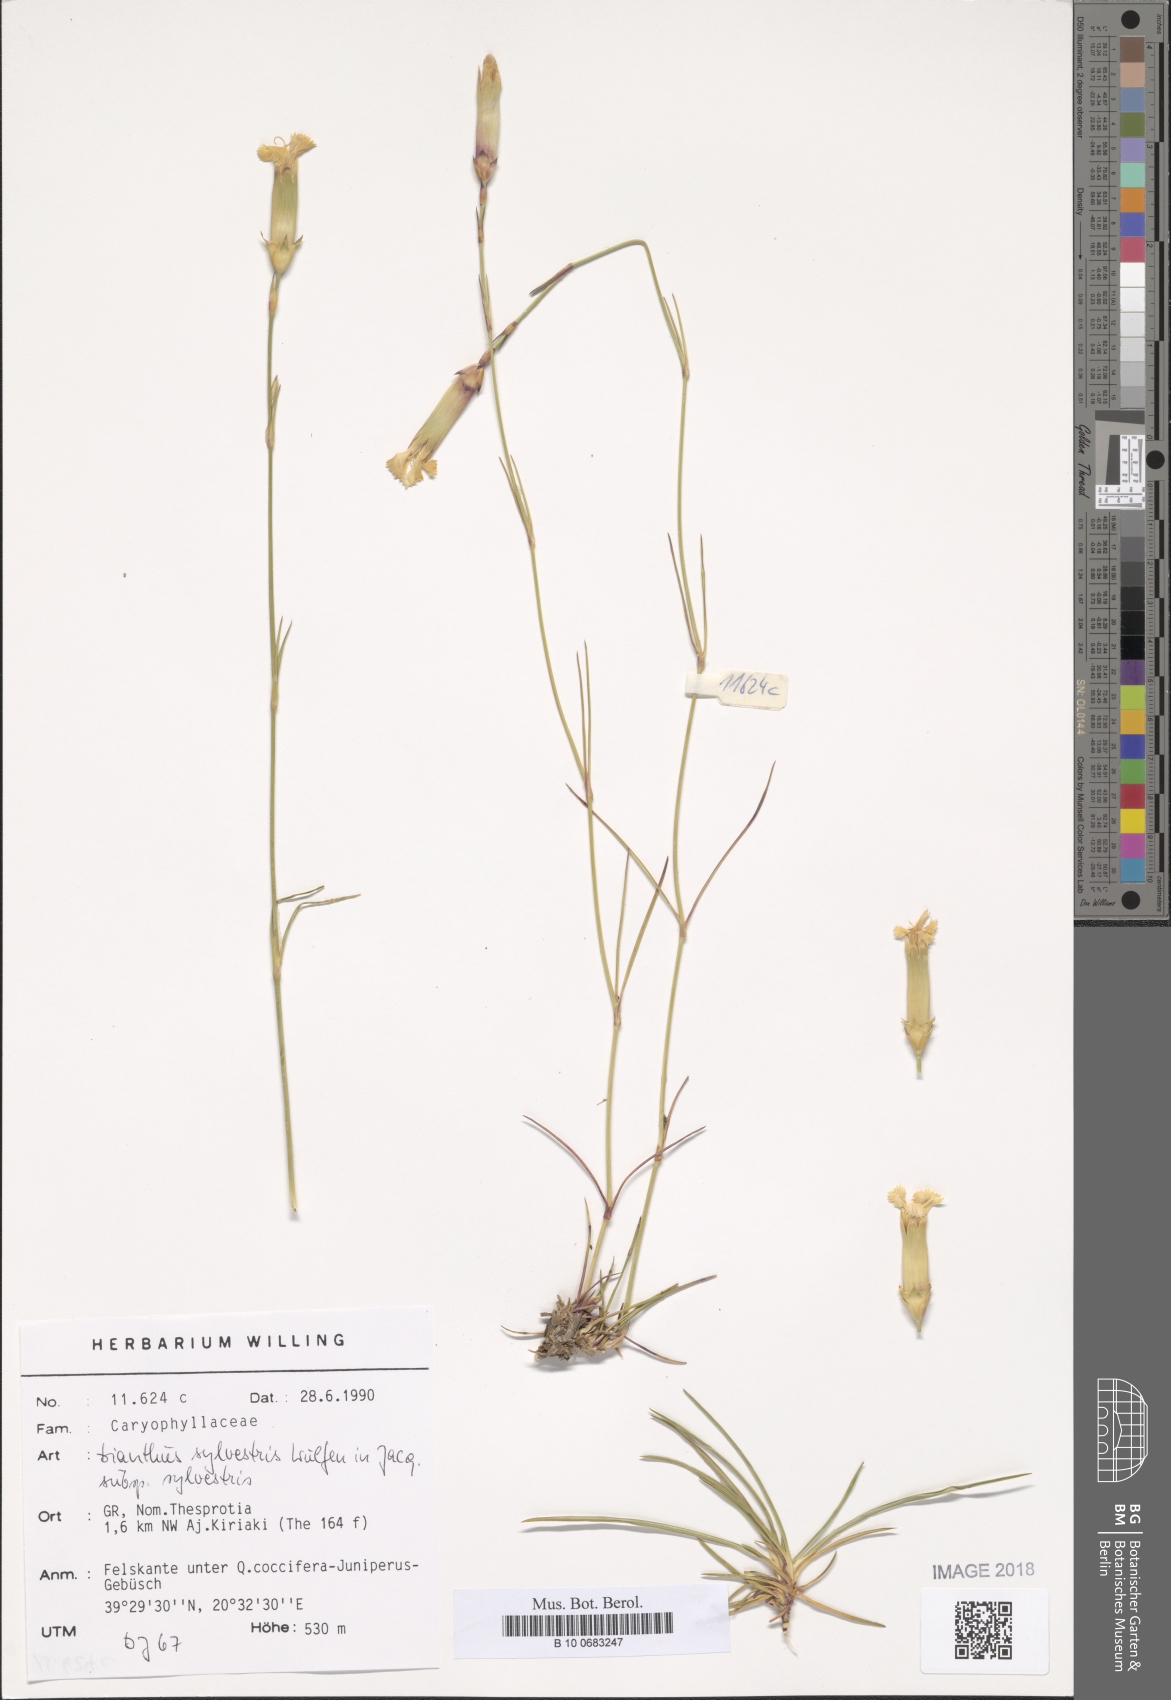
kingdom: Plantae
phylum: Tracheophyta
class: Magnoliopsida
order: Caryophyllales
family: Caryophyllaceae
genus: Dianthus
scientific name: Dianthus sylvestris
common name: Wood pink
